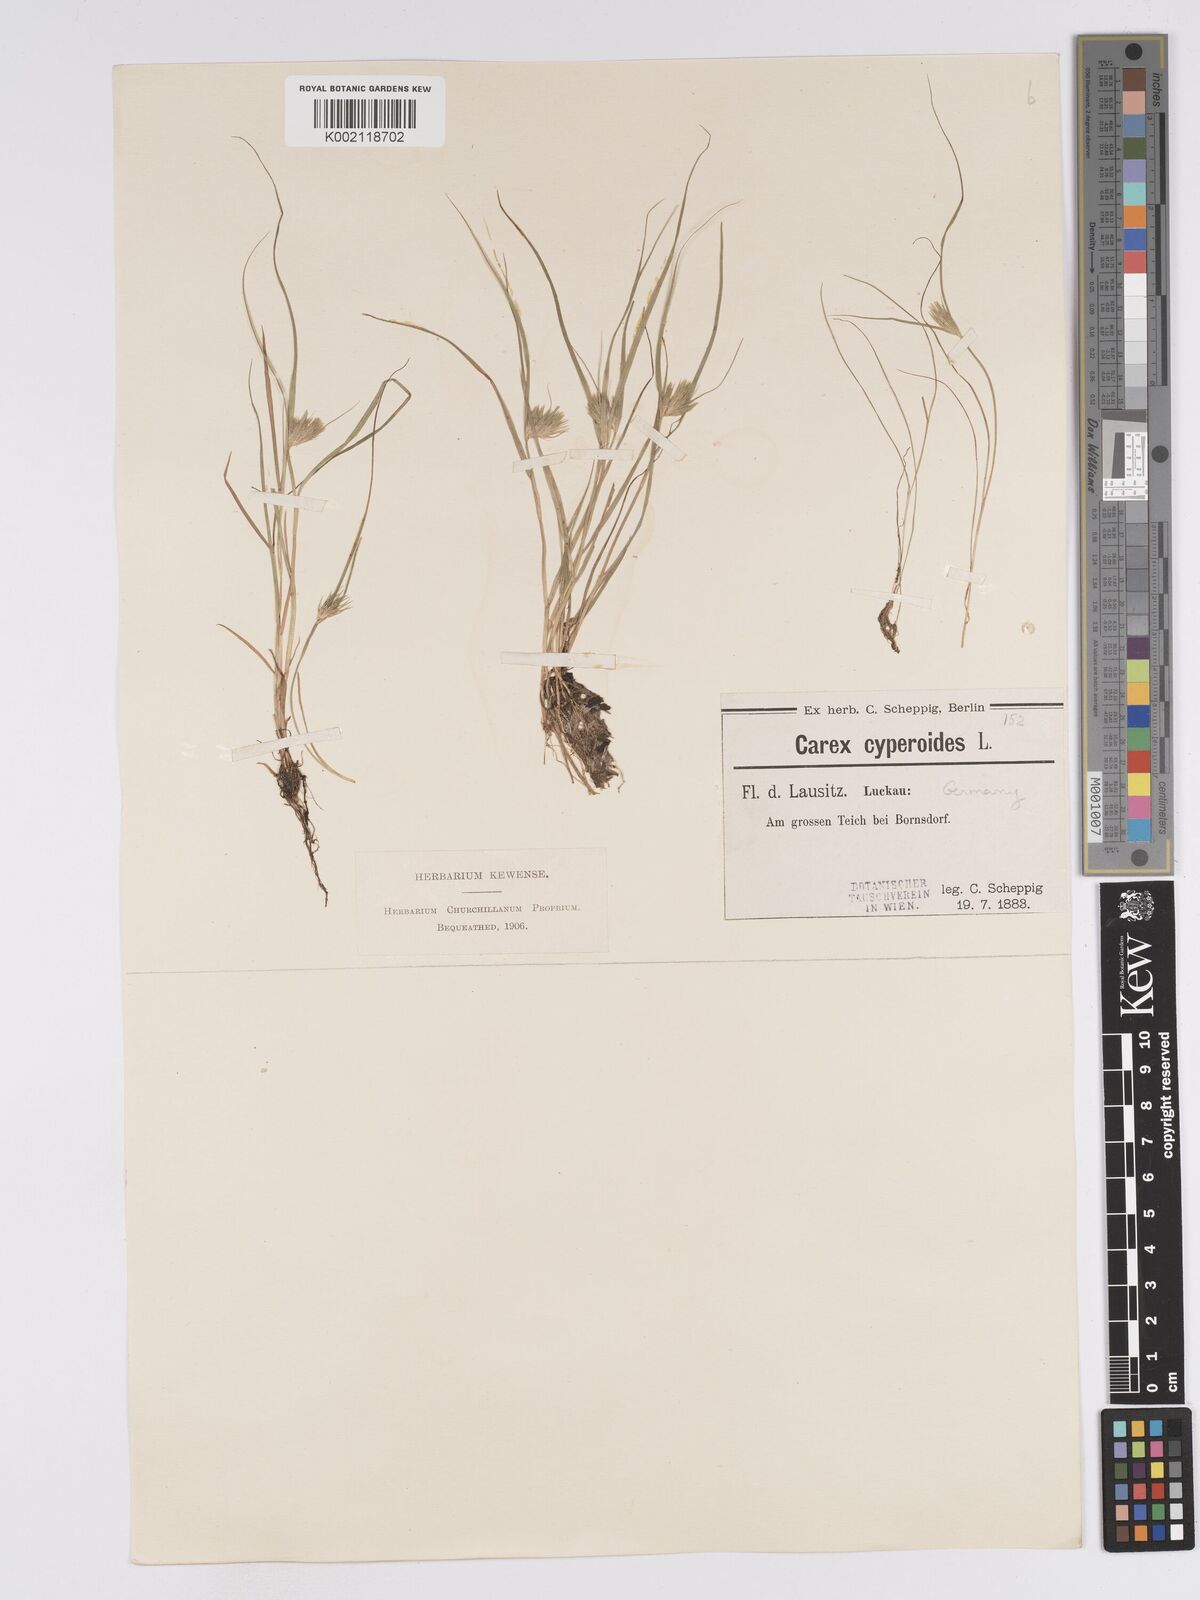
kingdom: Plantae
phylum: Tracheophyta
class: Liliopsida
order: Poales
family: Cyperaceae
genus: Carex
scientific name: Carex bohemica
